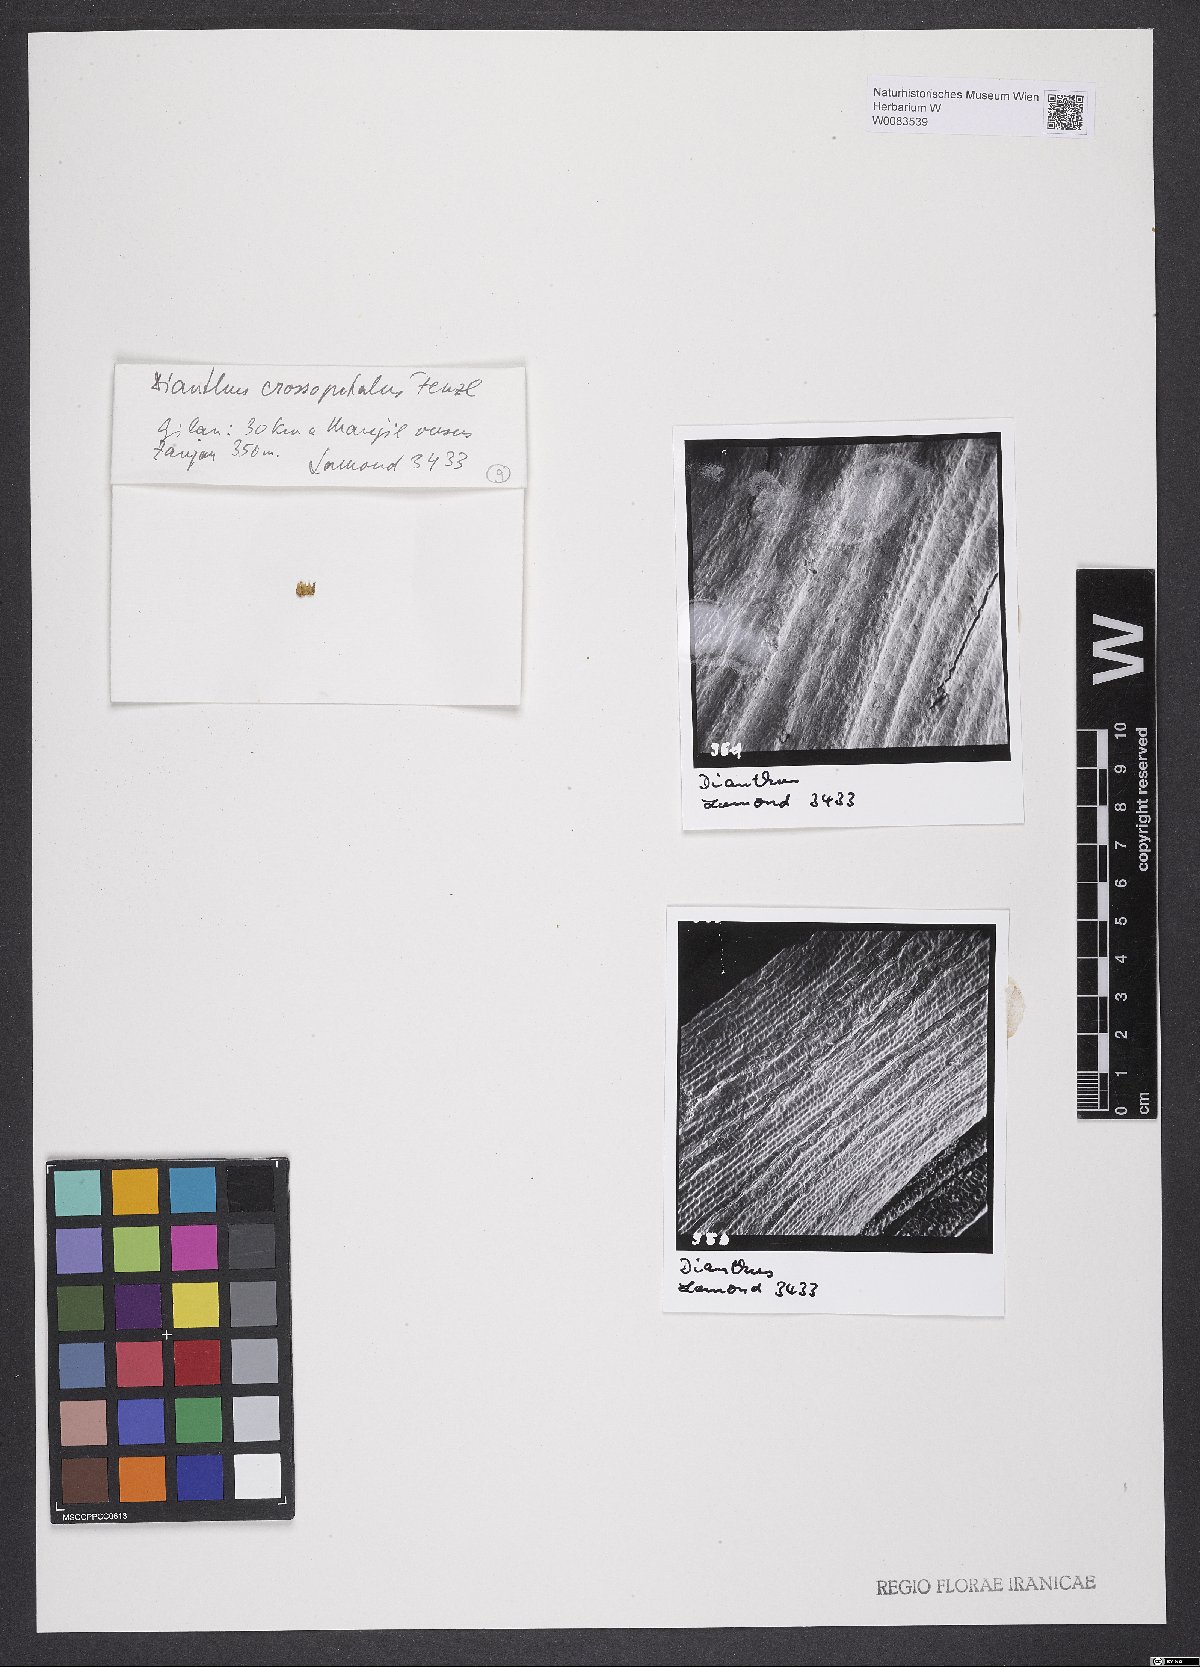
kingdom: Plantae
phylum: Tracheophyta
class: Magnoliopsida
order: Caryophyllales
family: Caryophyllaceae
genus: Dianthus
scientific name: Dianthus crossopetalus
